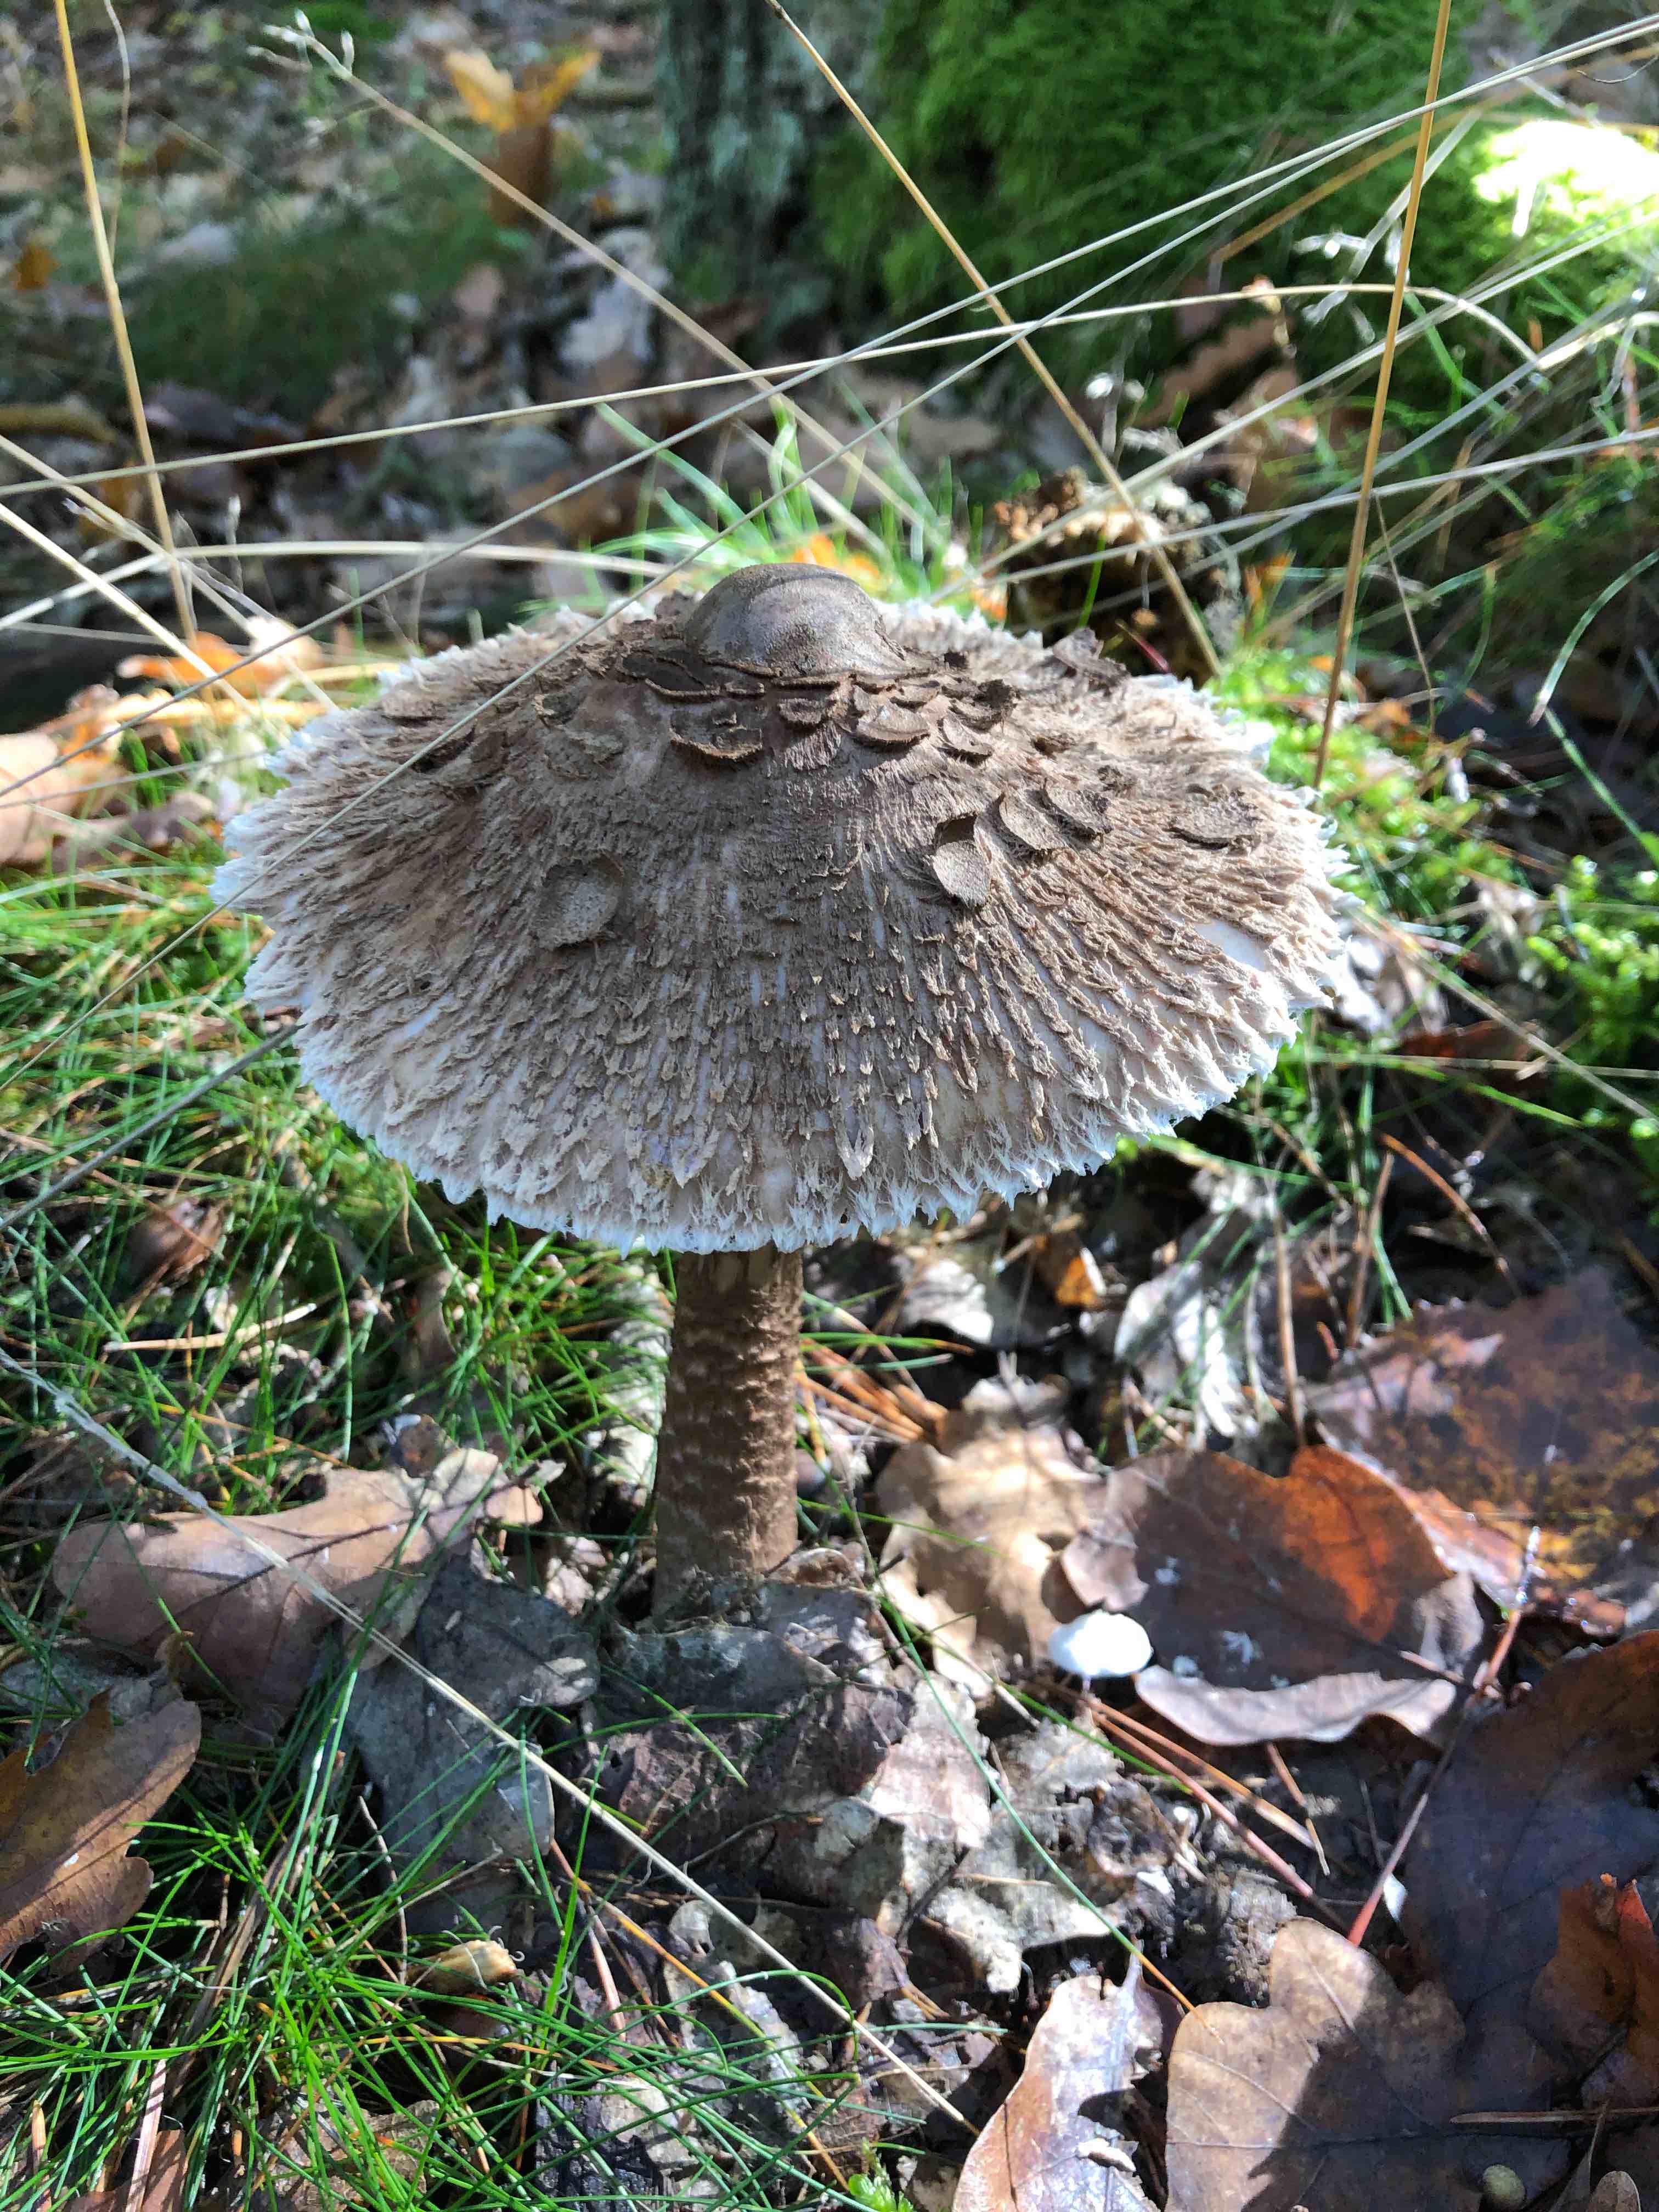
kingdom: Fungi
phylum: Basidiomycota
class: Agaricomycetes
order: Agaricales
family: Agaricaceae
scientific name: Agaricaceae
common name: champignonfamilien
